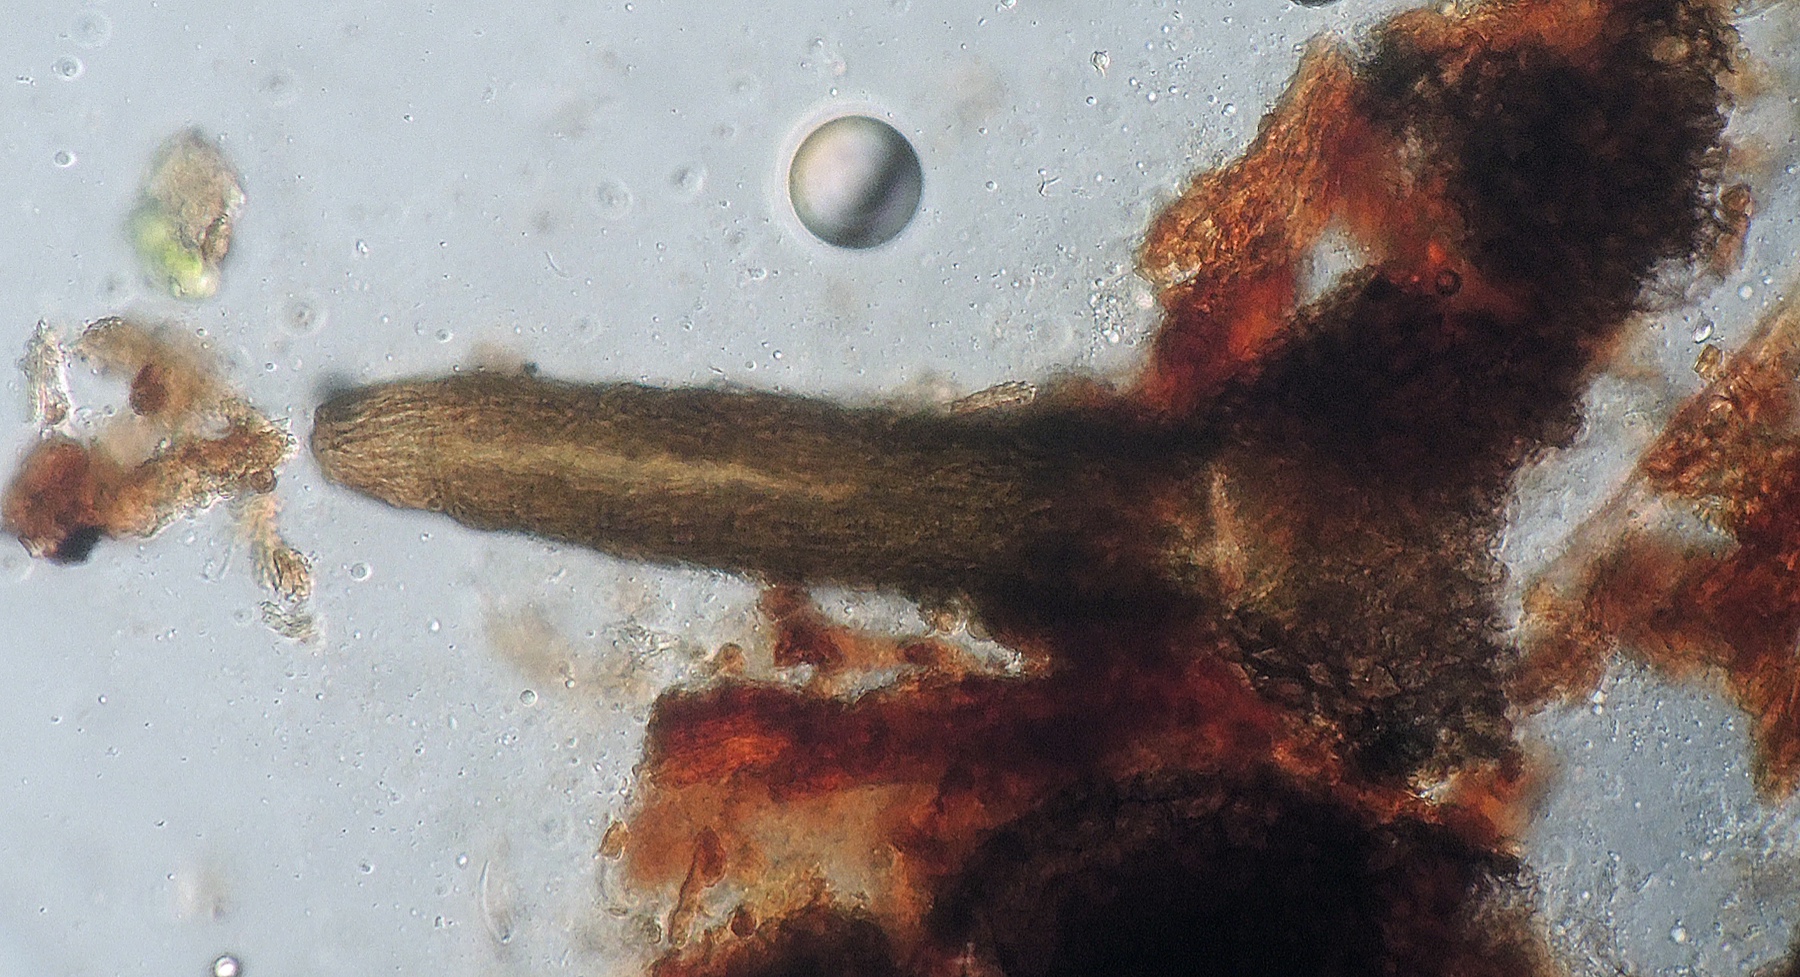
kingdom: Fungi
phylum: Ascomycota
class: Sordariomycetes
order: Diaporthales
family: Gnomoniaceae
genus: Apiognomonia
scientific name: Apiognomonia veneta
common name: Plane anthracnose
